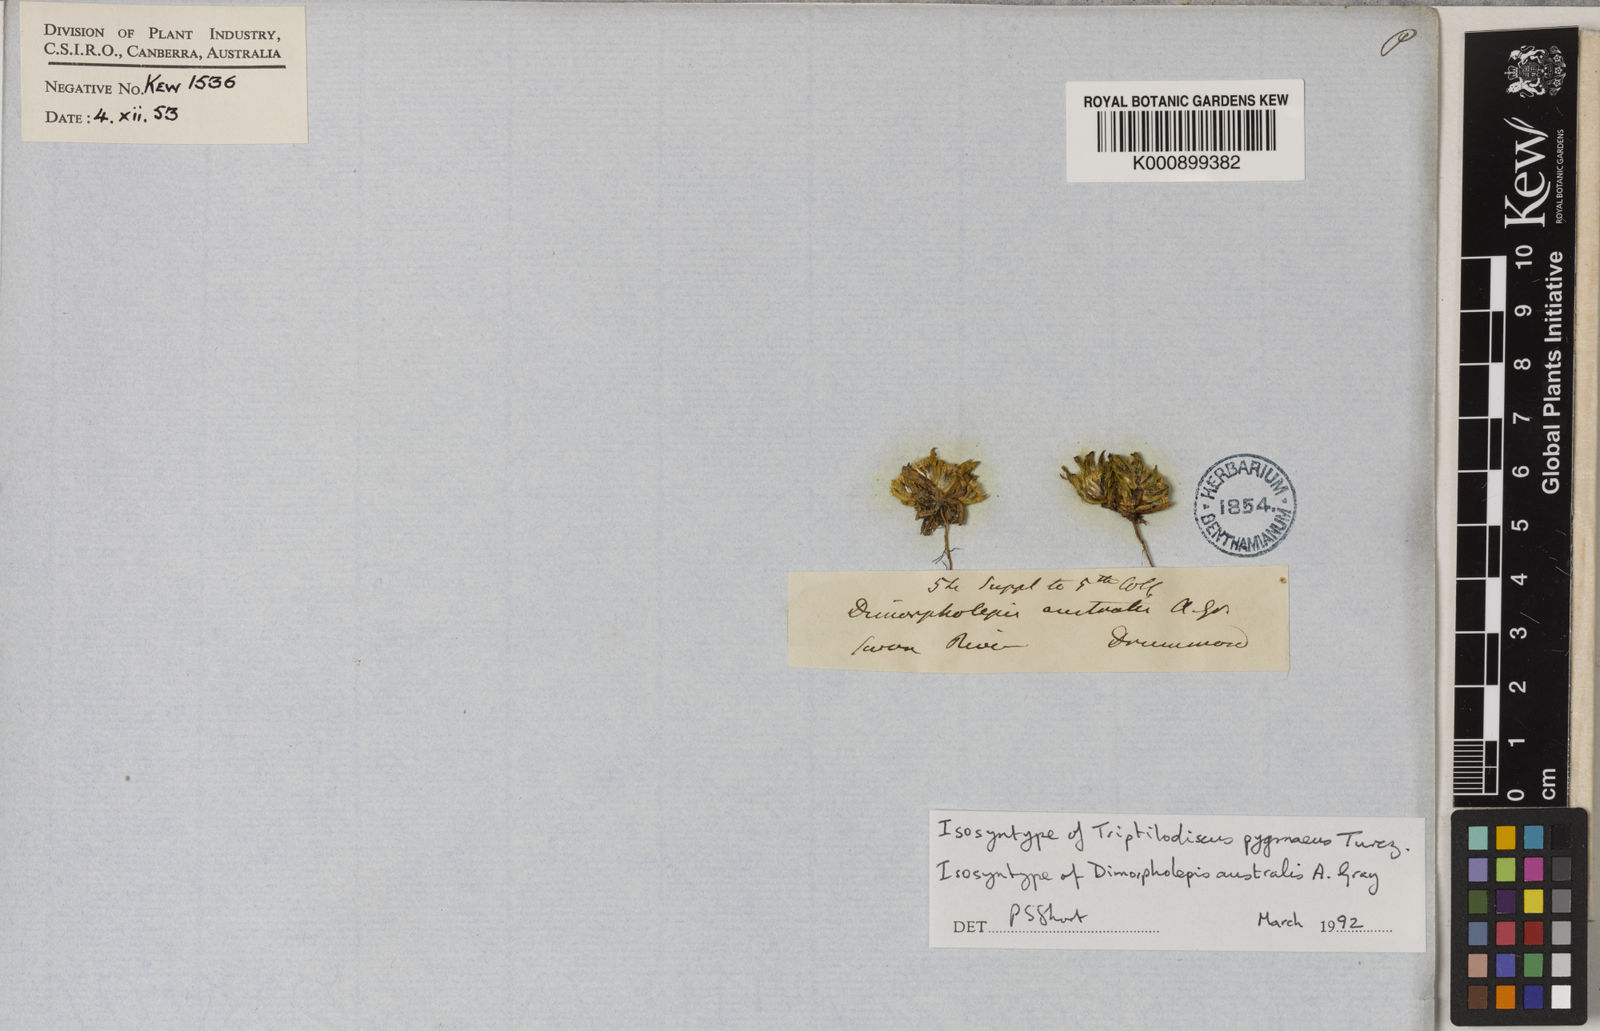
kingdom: Plantae
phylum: Tracheophyta
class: Magnoliopsida
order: Asterales
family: Asteraceae
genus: Triptilodiscus
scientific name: Triptilodiscus pygmaeus
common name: Common sunray
